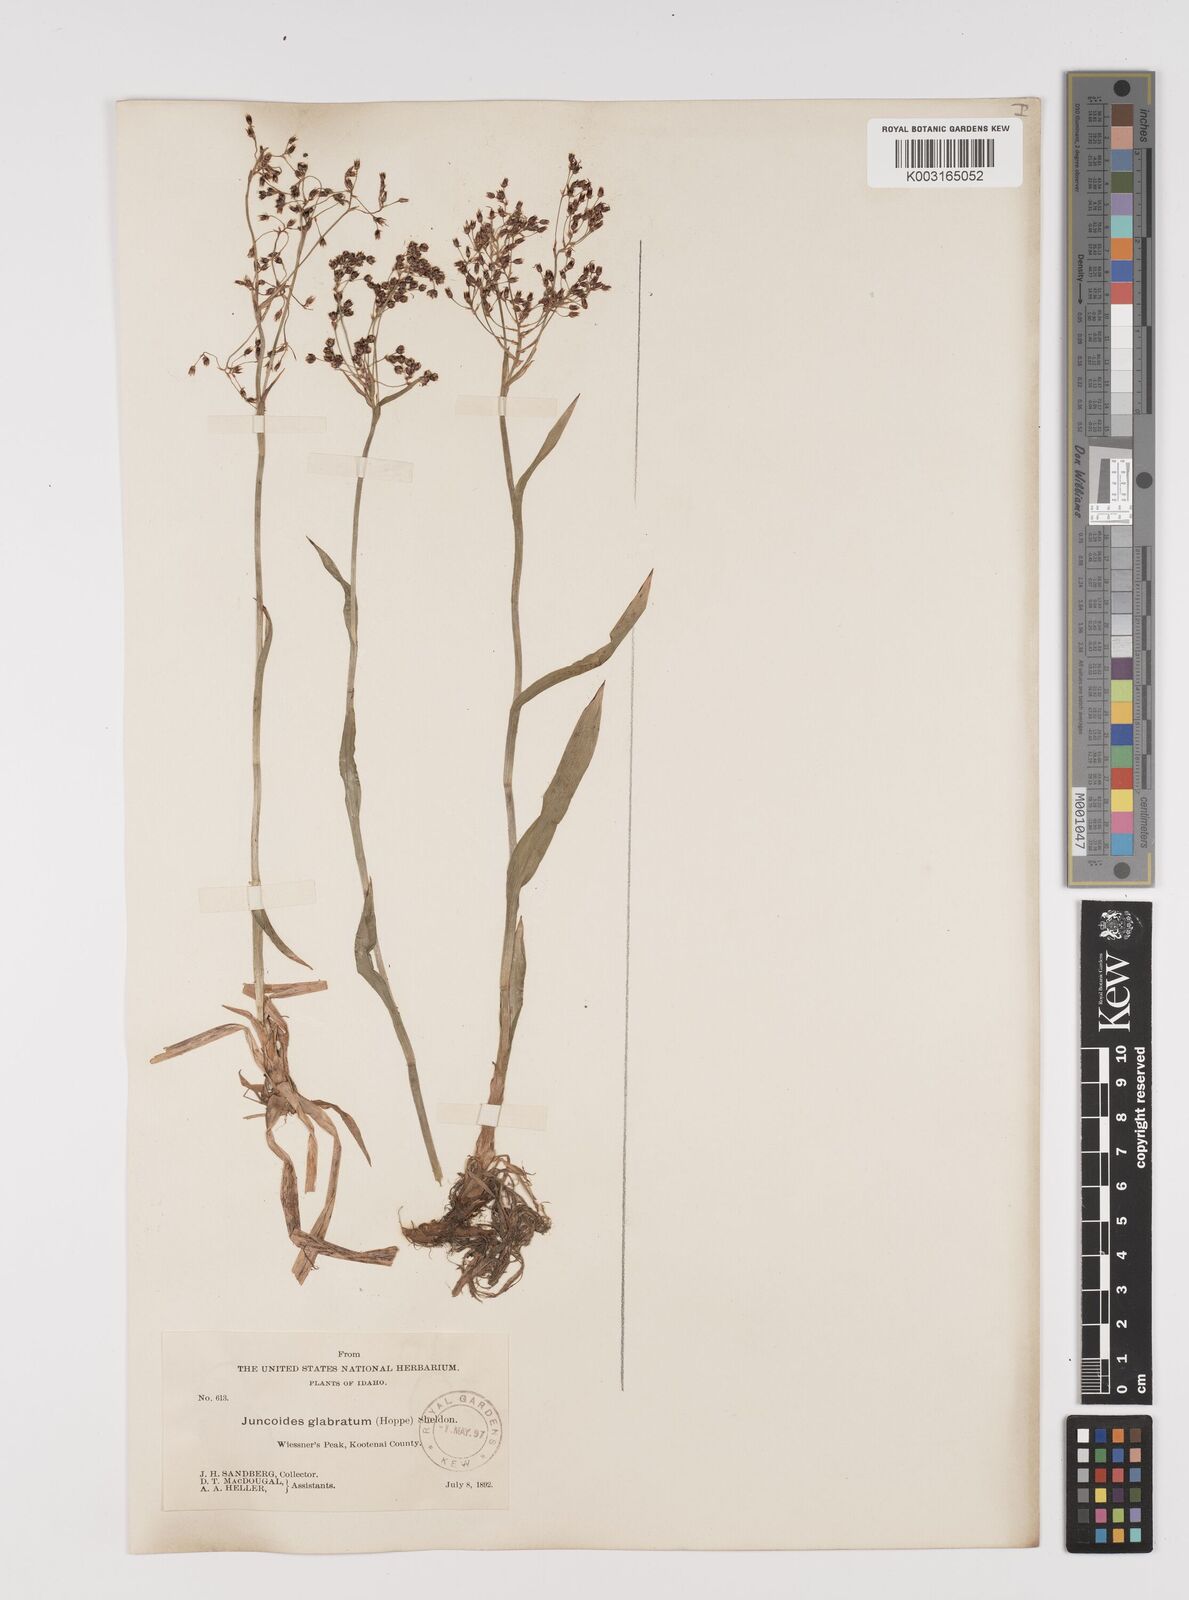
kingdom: Plantae
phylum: Tracheophyta
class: Liliopsida
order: Poales
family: Juncaceae
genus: Luzula
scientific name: Luzula piperi
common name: Piper's wood-rush
